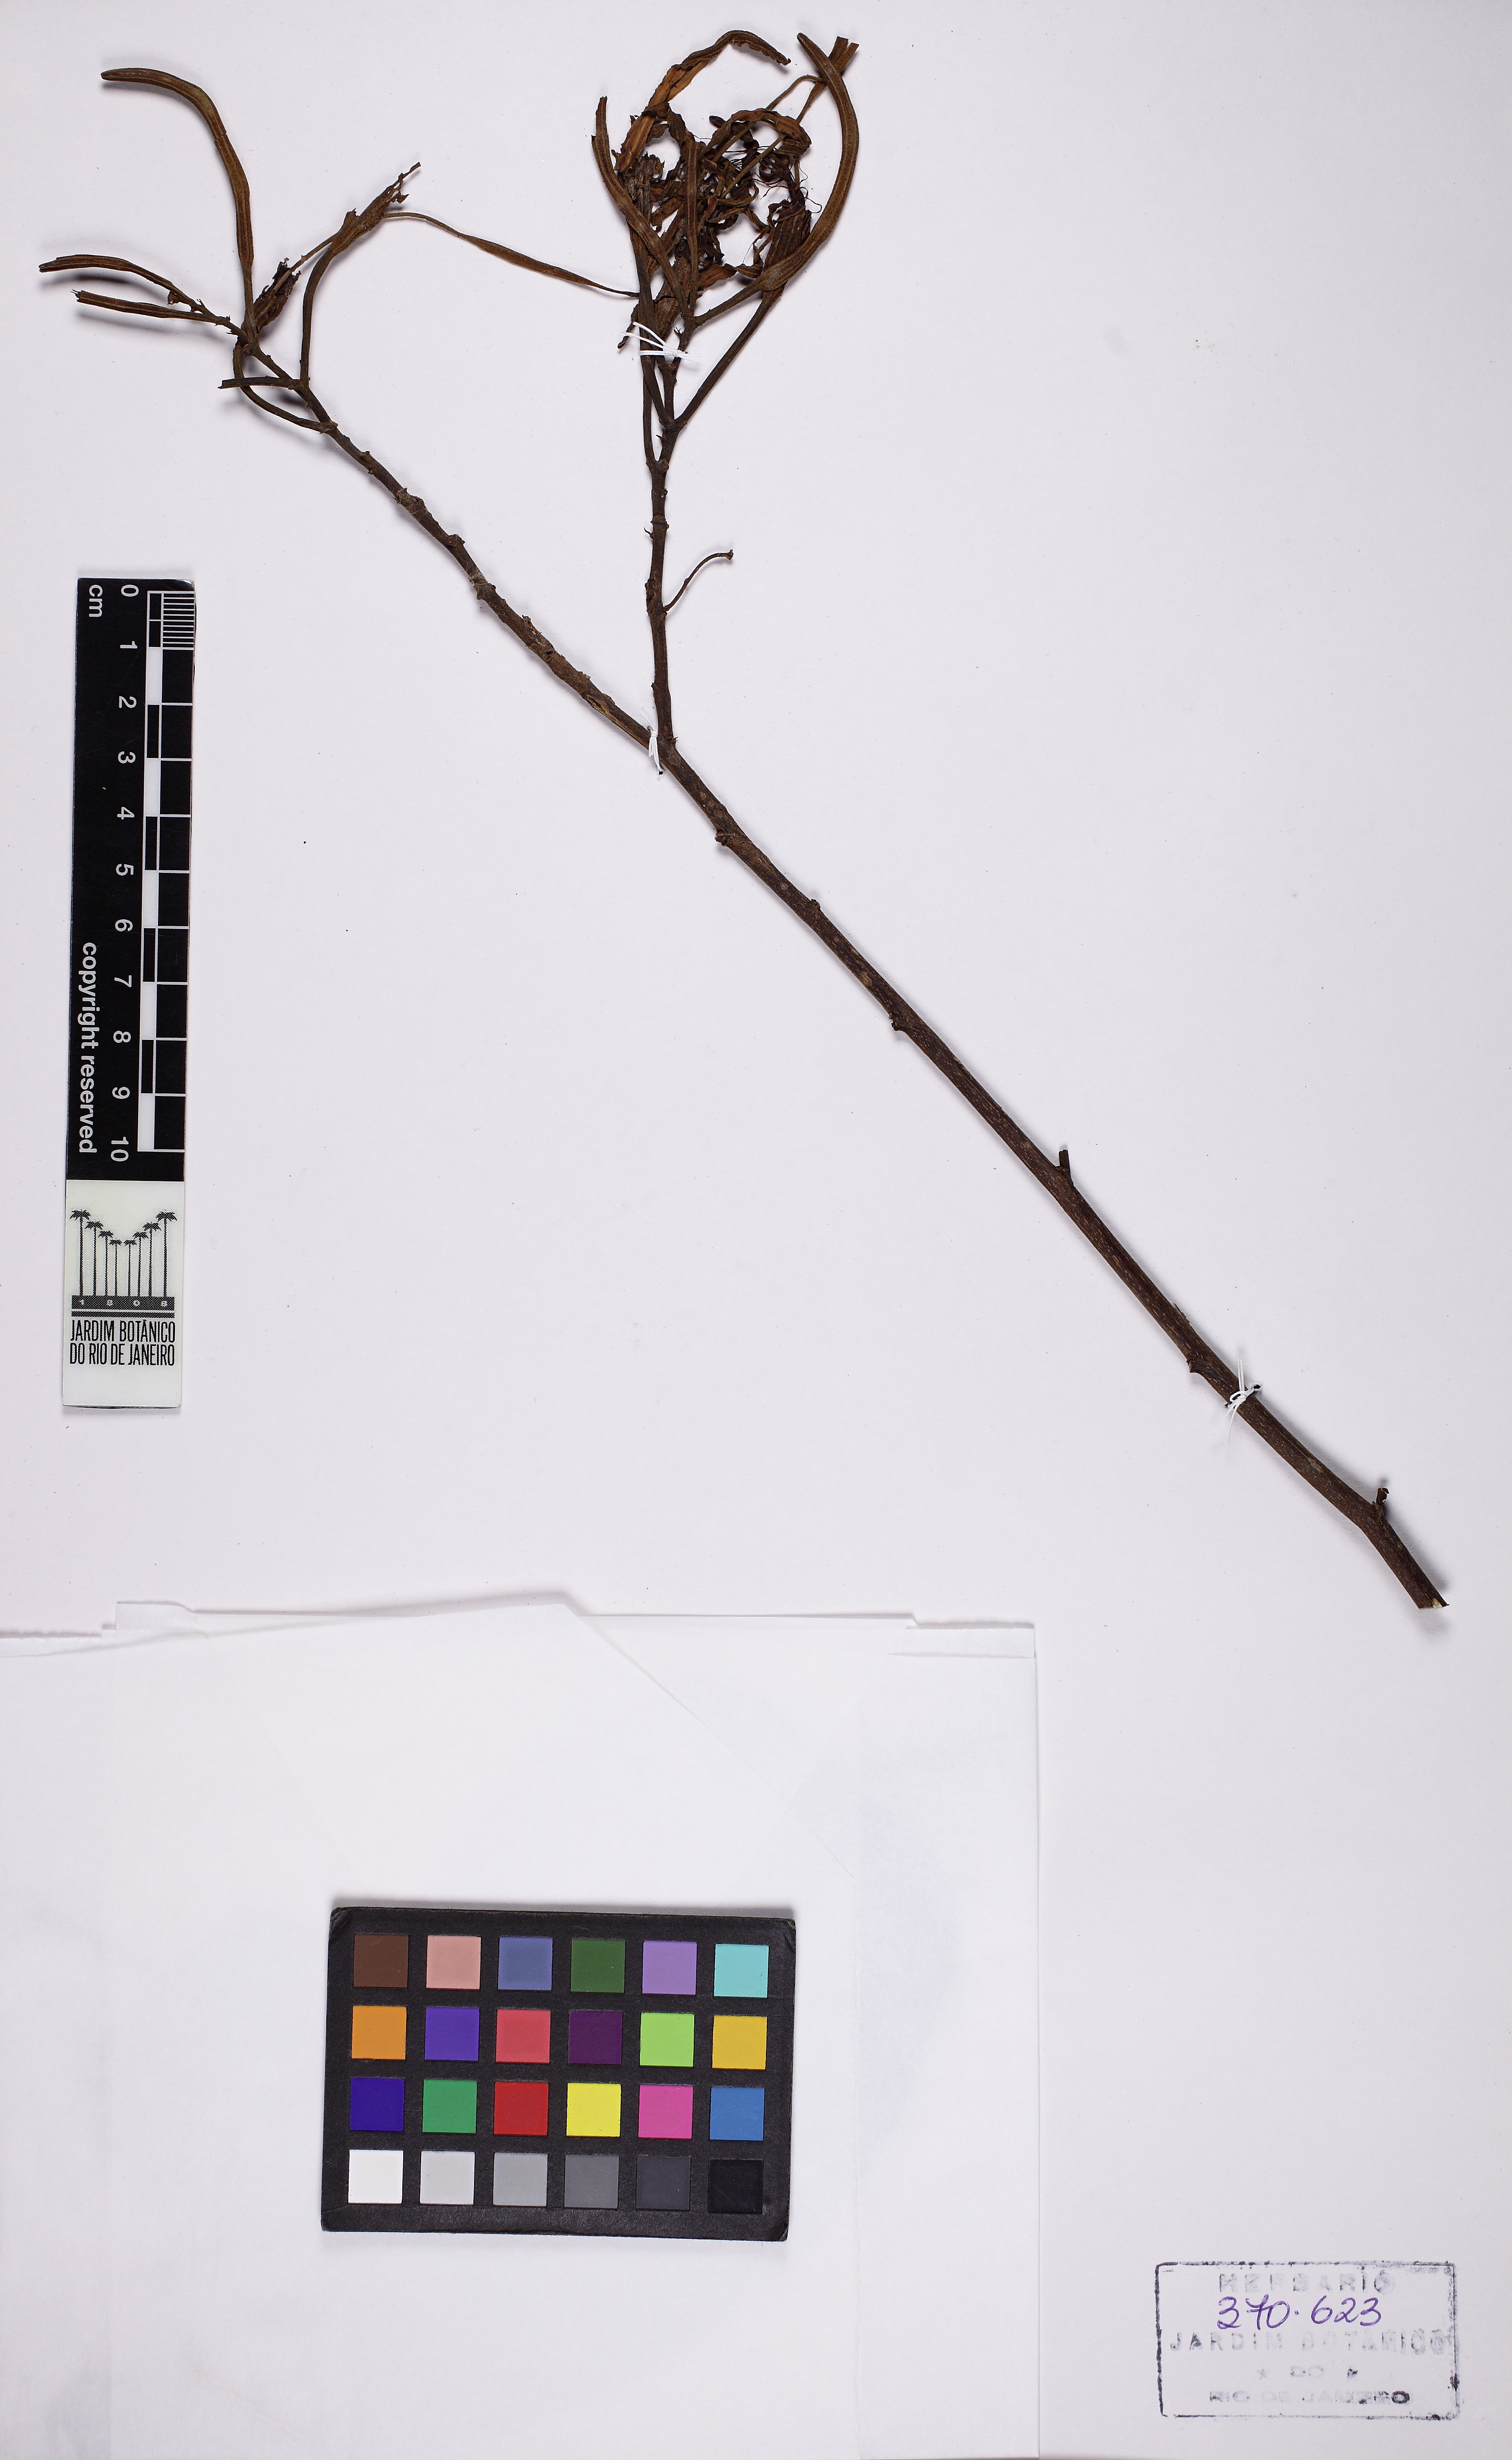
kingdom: Plantae
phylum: Tracheophyta
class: Magnoliopsida
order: Fabales
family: Fabaceae
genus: Bauhinia
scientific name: Bauhinia
